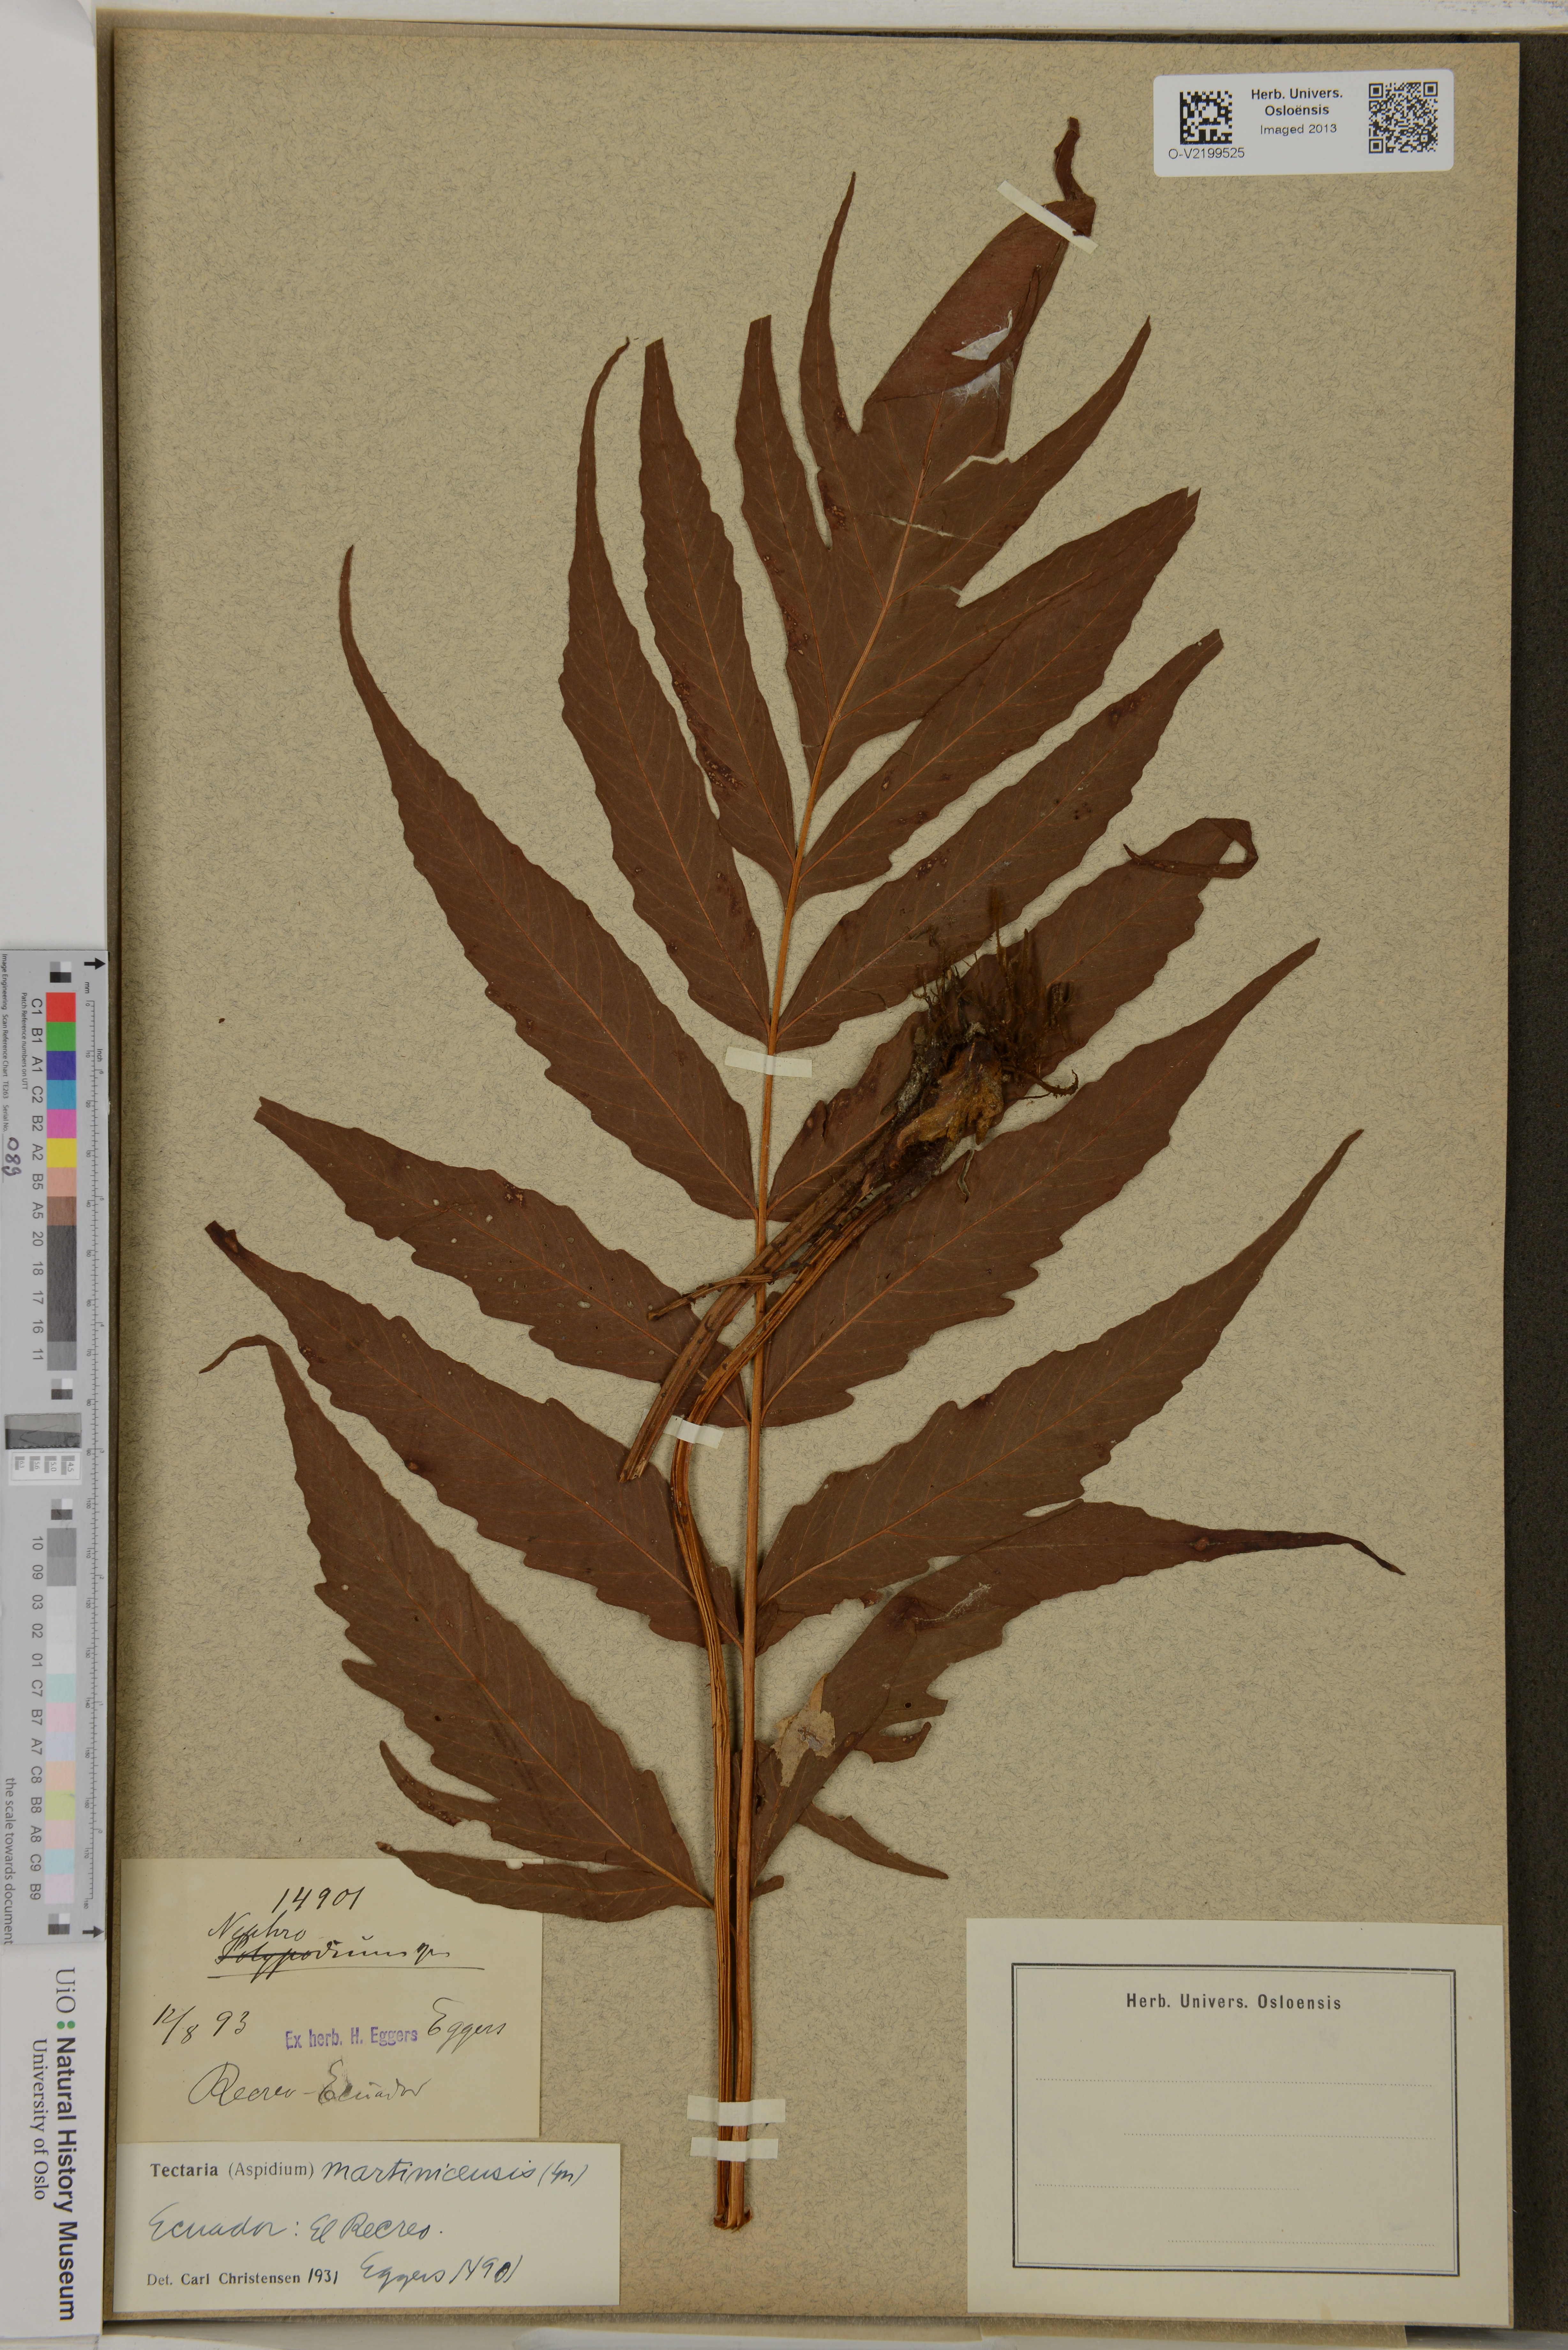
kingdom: Plantae
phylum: Tracheophyta
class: Polypodiopsida
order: Polypodiales
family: Tectariaceae
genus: Tectaria
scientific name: Tectaria incisa
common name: Incised halberd fern
